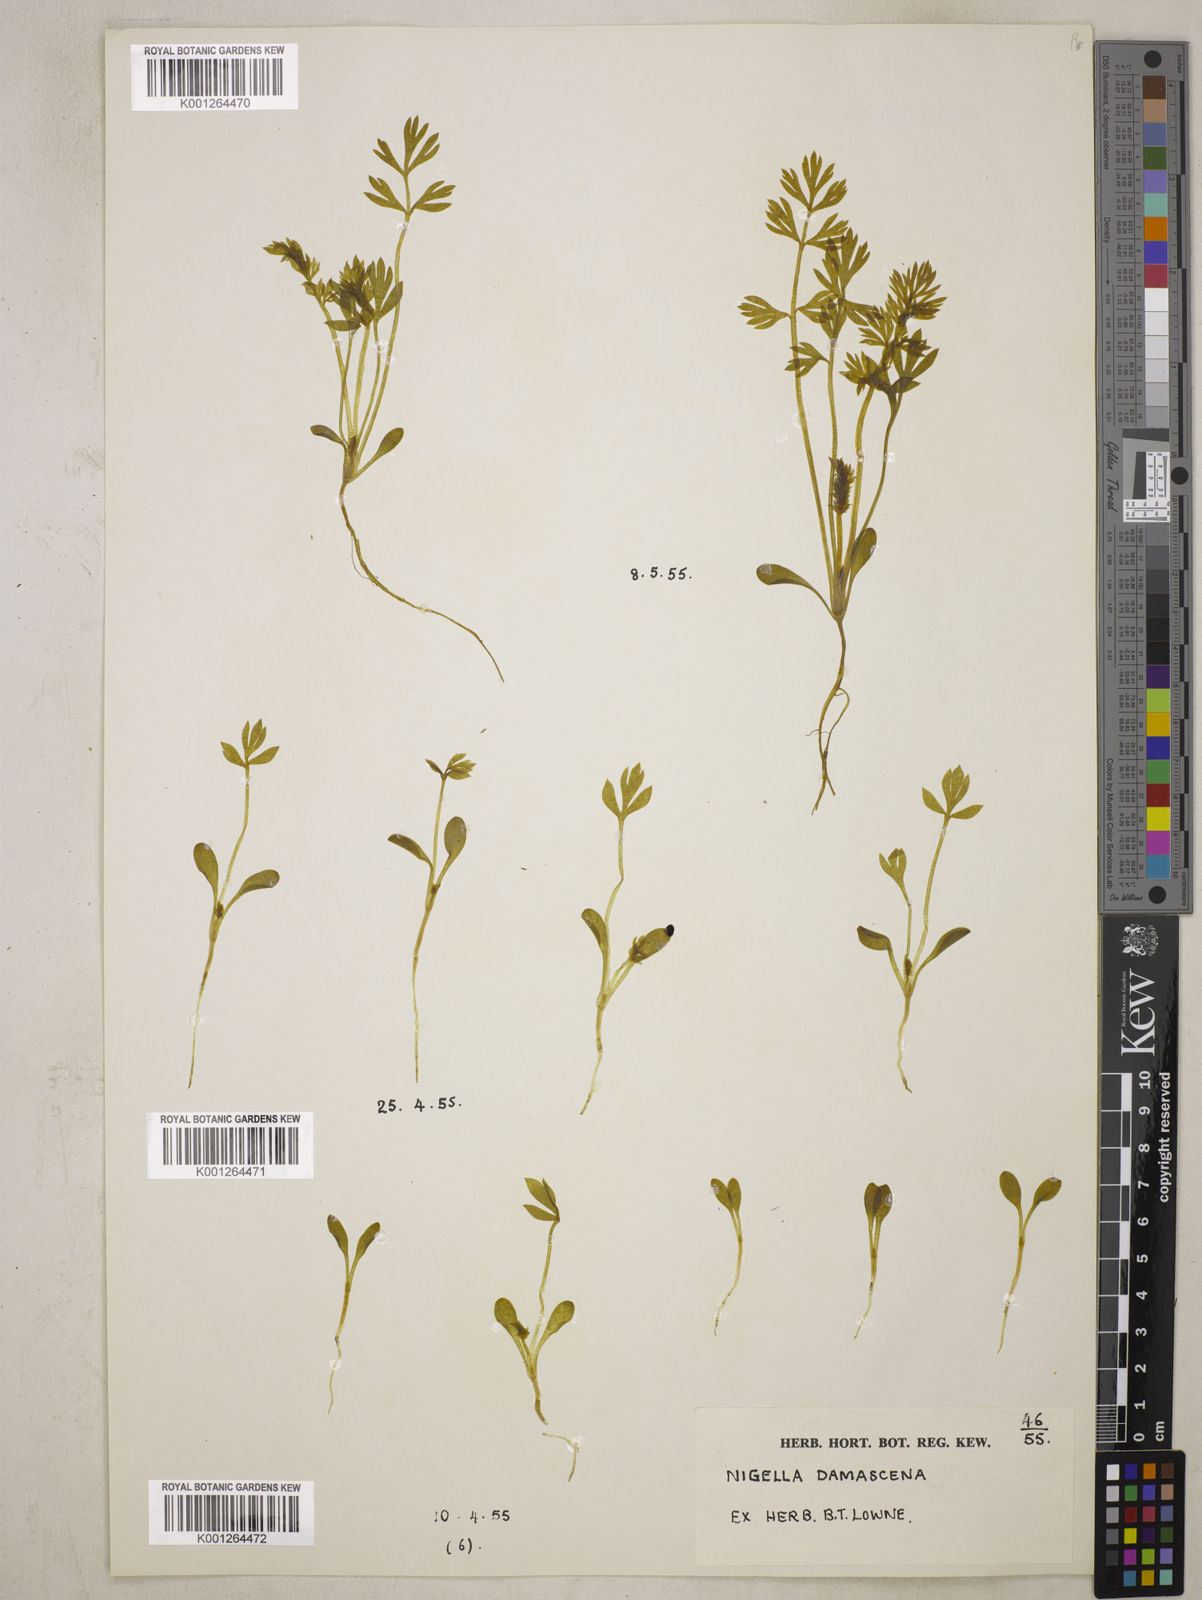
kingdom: Plantae
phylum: Tracheophyta
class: Magnoliopsida
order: Ranunculales
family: Ranunculaceae
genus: Nigella
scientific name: Nigella damascena
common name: Love-in-a-mist
